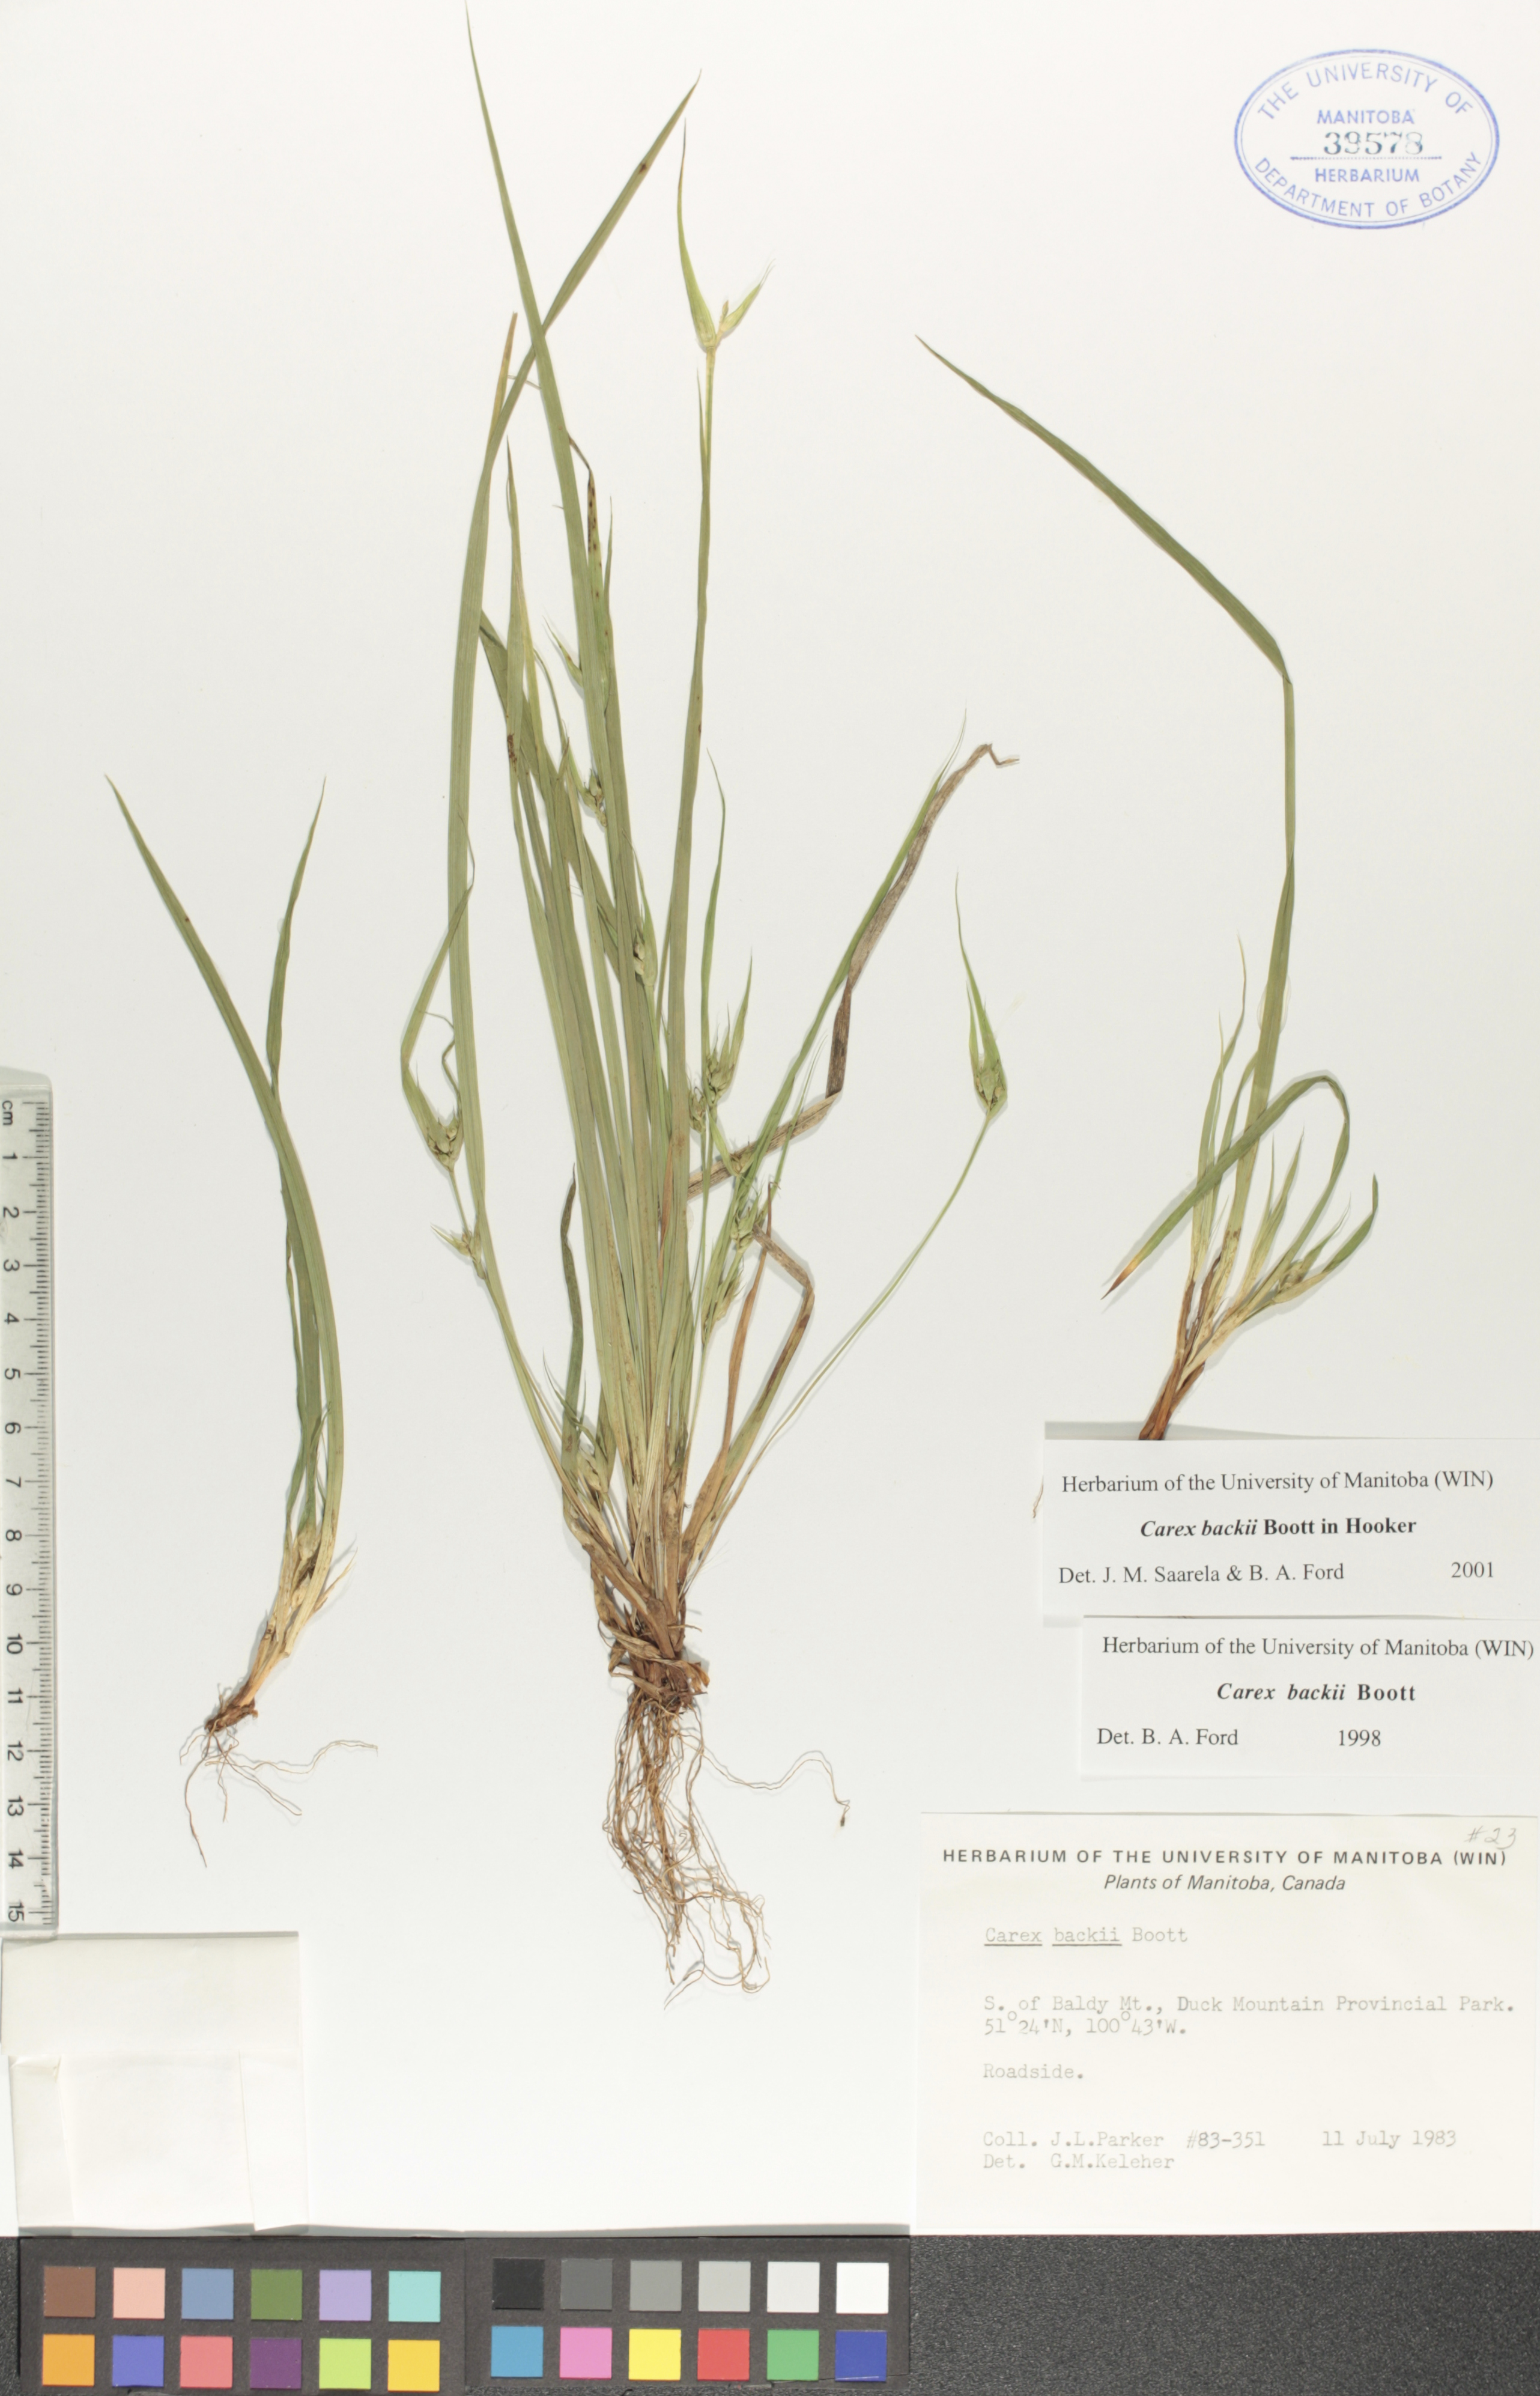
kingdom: Plantae
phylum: Tracheophyta
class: Liliopsida
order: Poales
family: Cyperaceae
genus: Carex
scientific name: Carex backii
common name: Back's sedge
